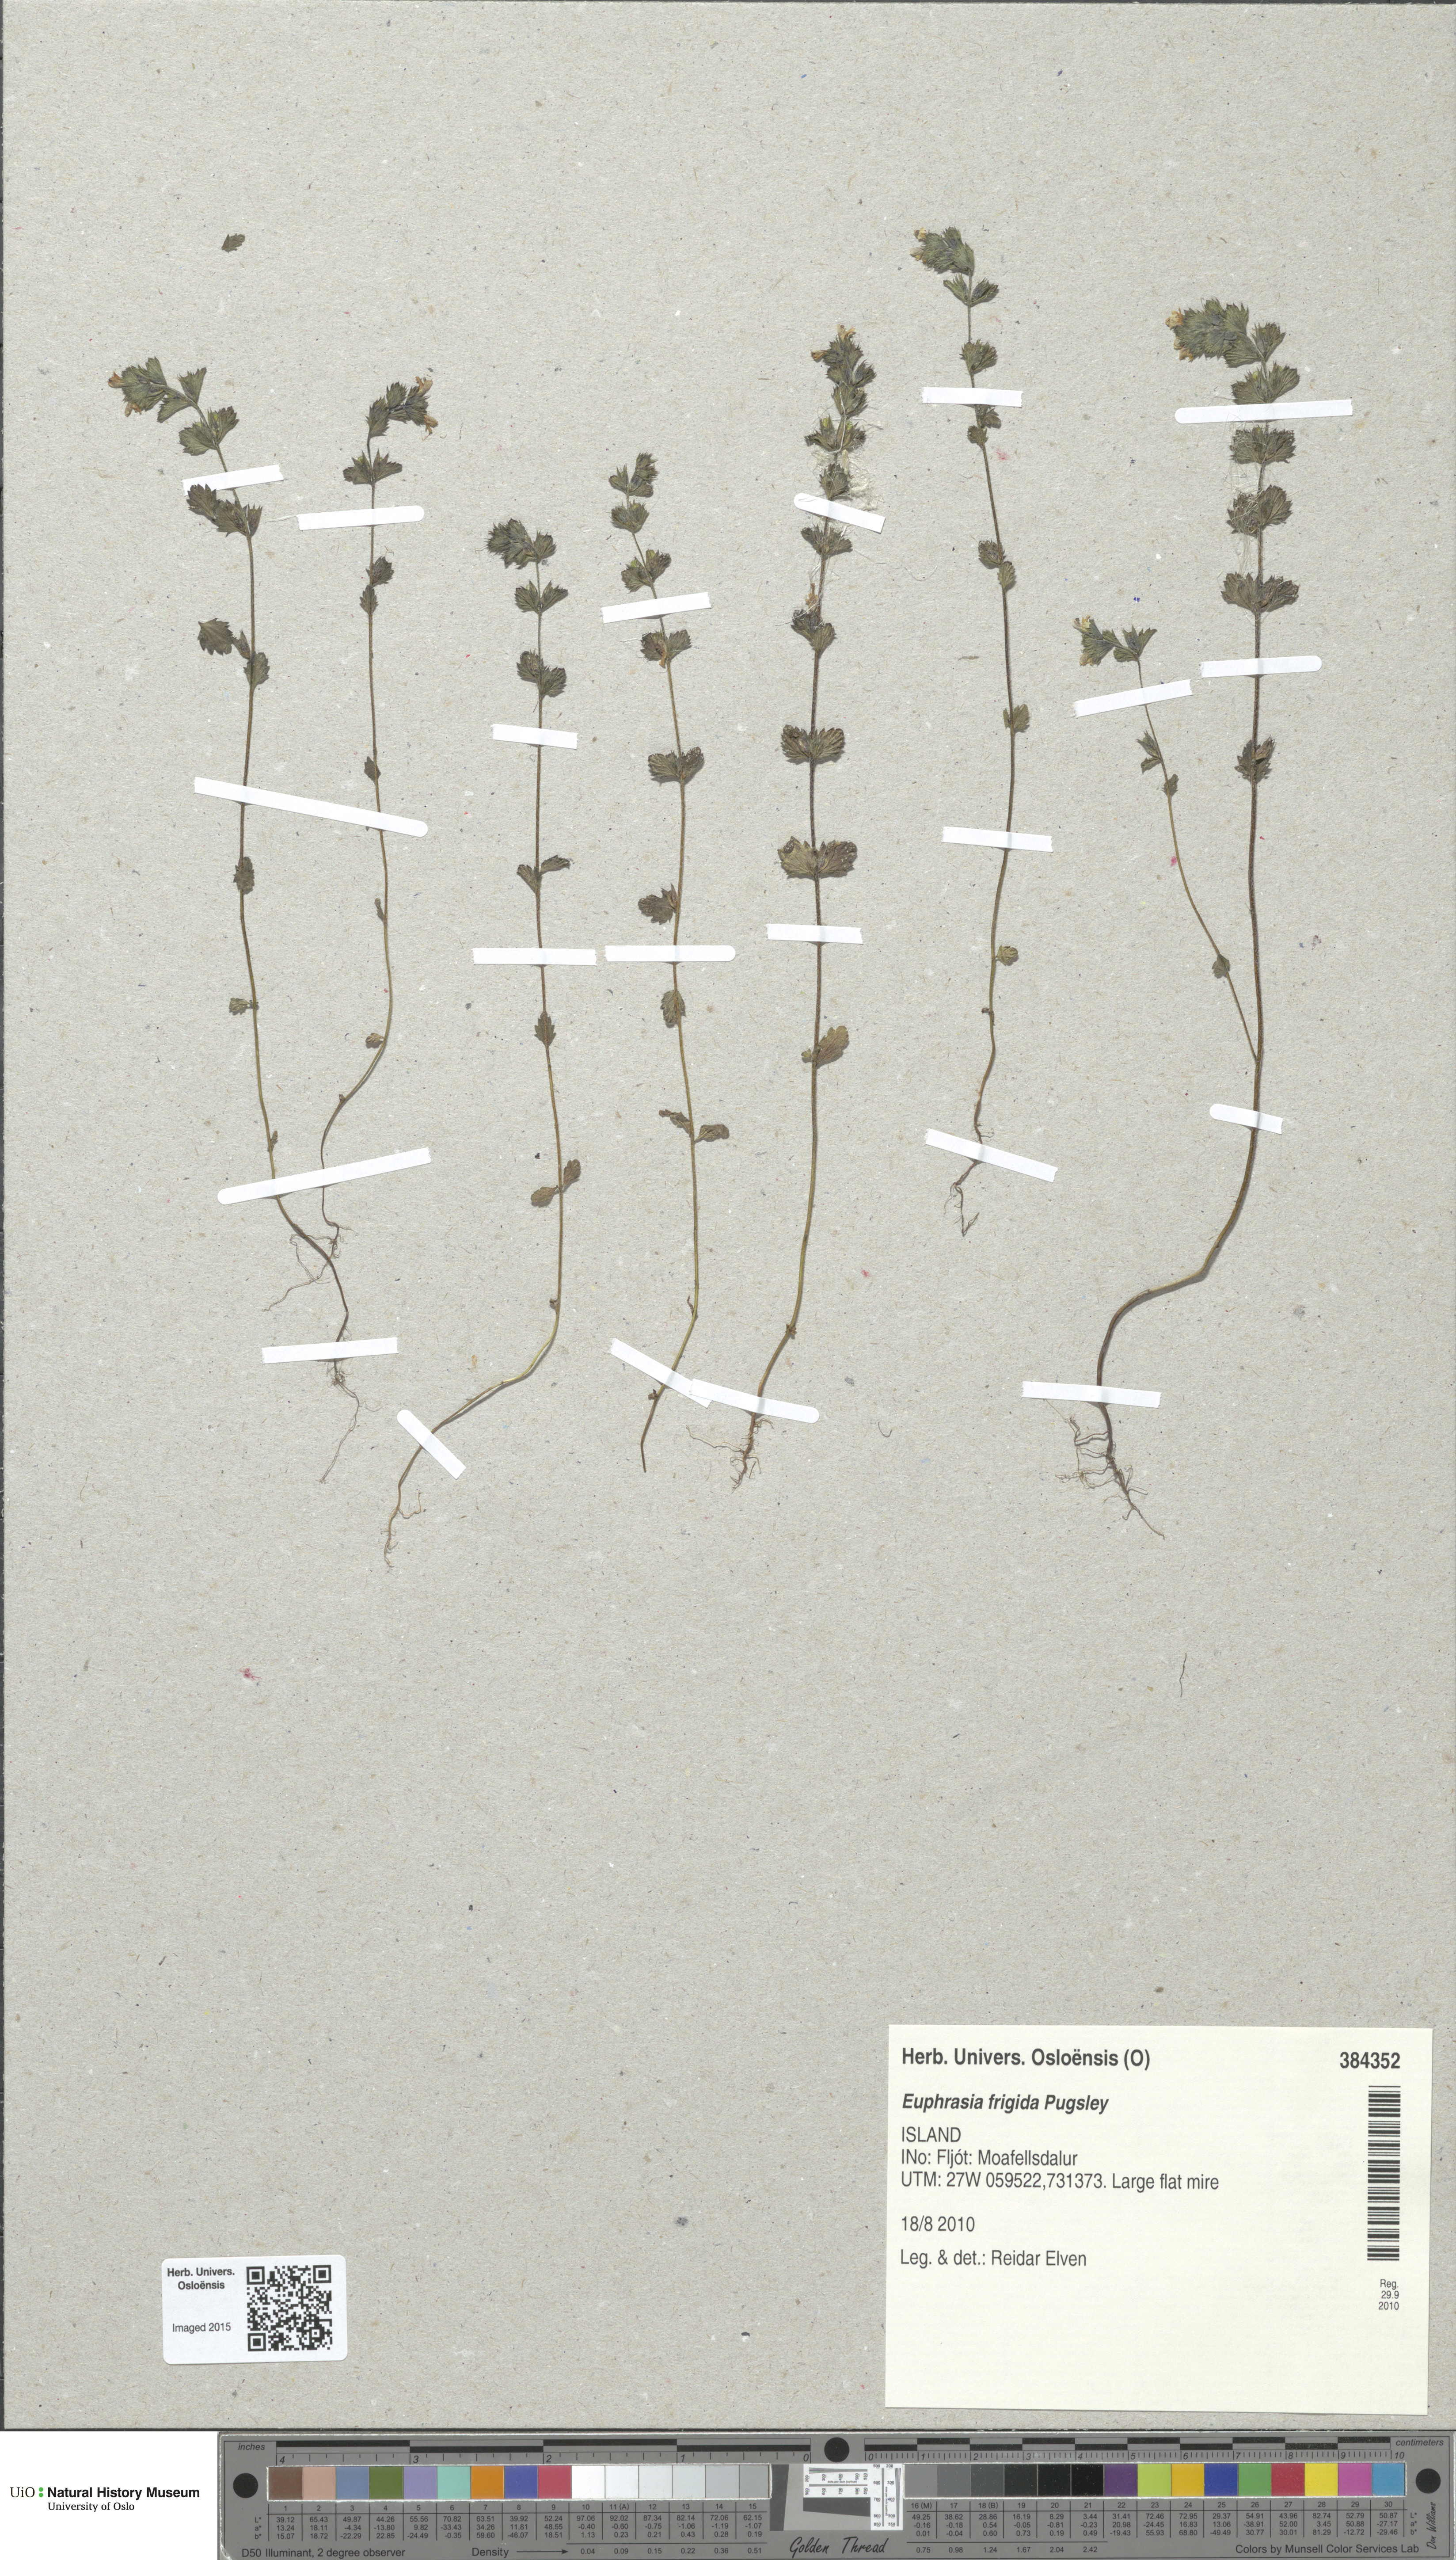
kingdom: Plantae
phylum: Tracheophyta
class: Magnoliopsida
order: Lamiales
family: Orobanchaceae
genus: Euphrasia
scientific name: Euphrasia frigida
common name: An eyebright
